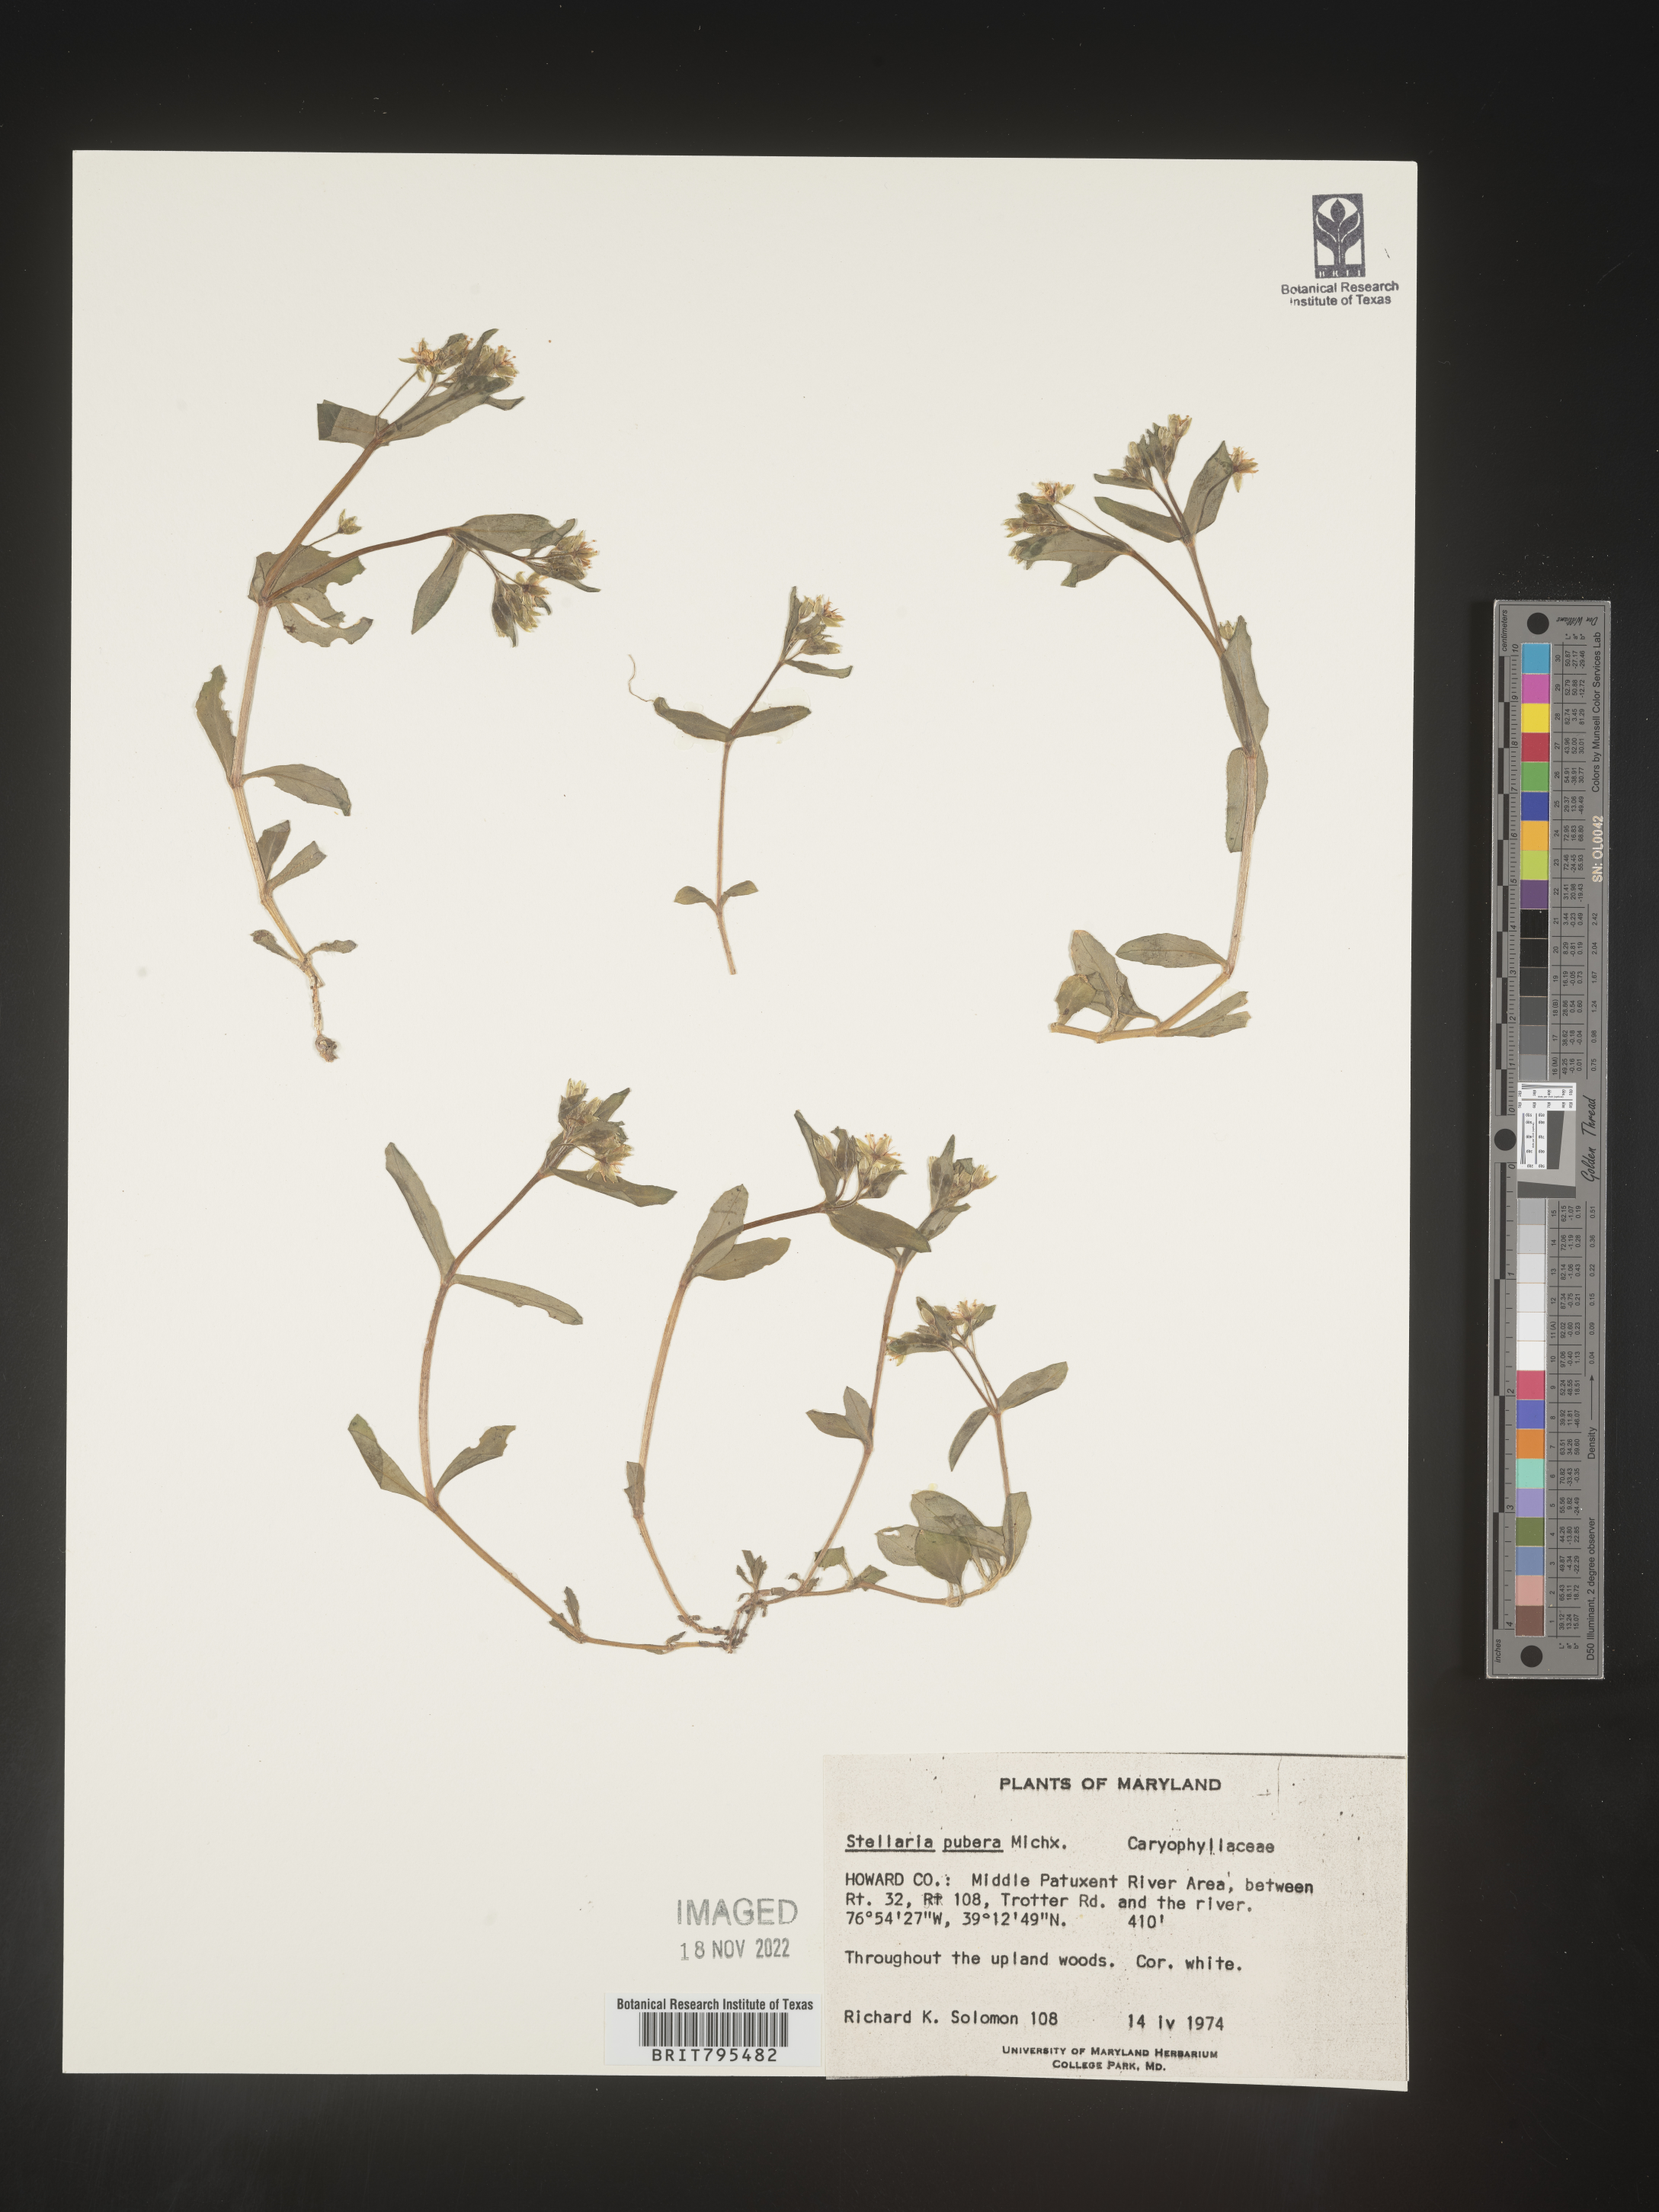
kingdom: Plantae
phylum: Tracheophyta
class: Magnoliopsida
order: Caryophyllales
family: Caryophyllaceae
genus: Stellaria
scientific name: Stellaria pubera
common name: Star chickweed
